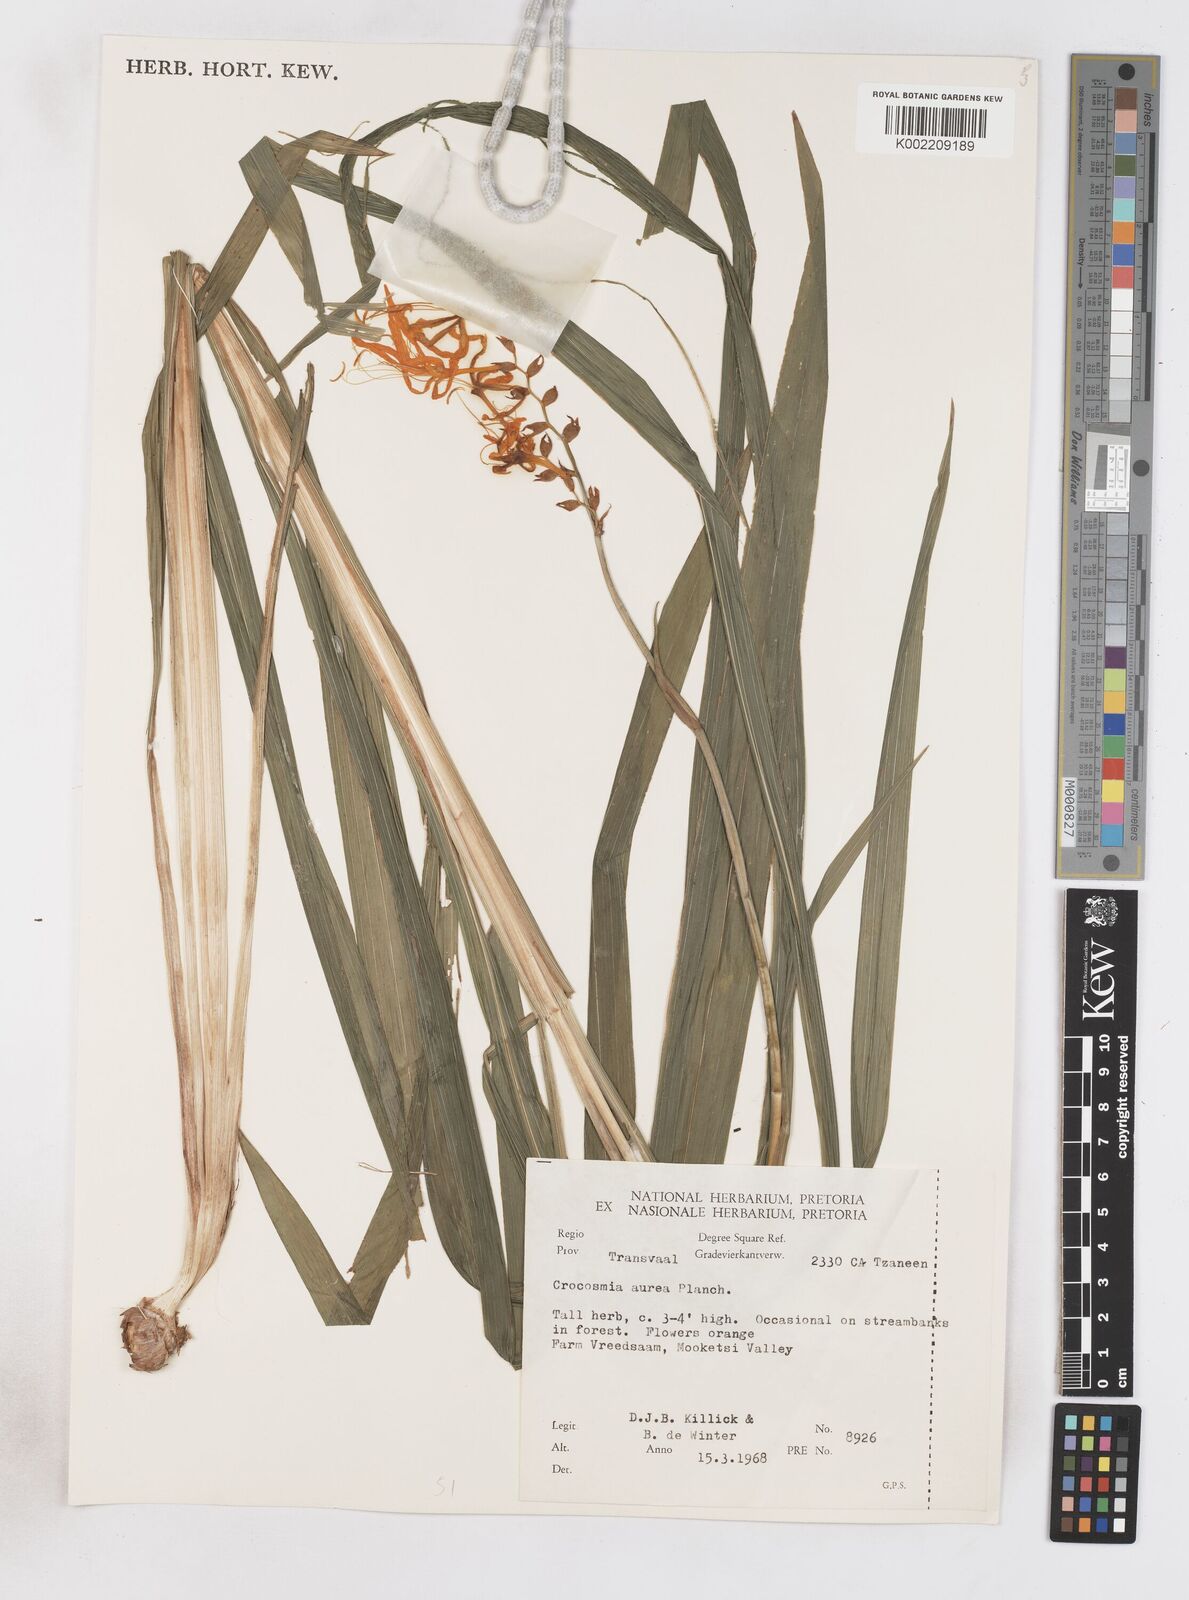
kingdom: Plantae
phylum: Tracheophyta
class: Liliopsida
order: Asparagales
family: Iridaceae
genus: Crocosmia
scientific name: Crocosmia aurea
